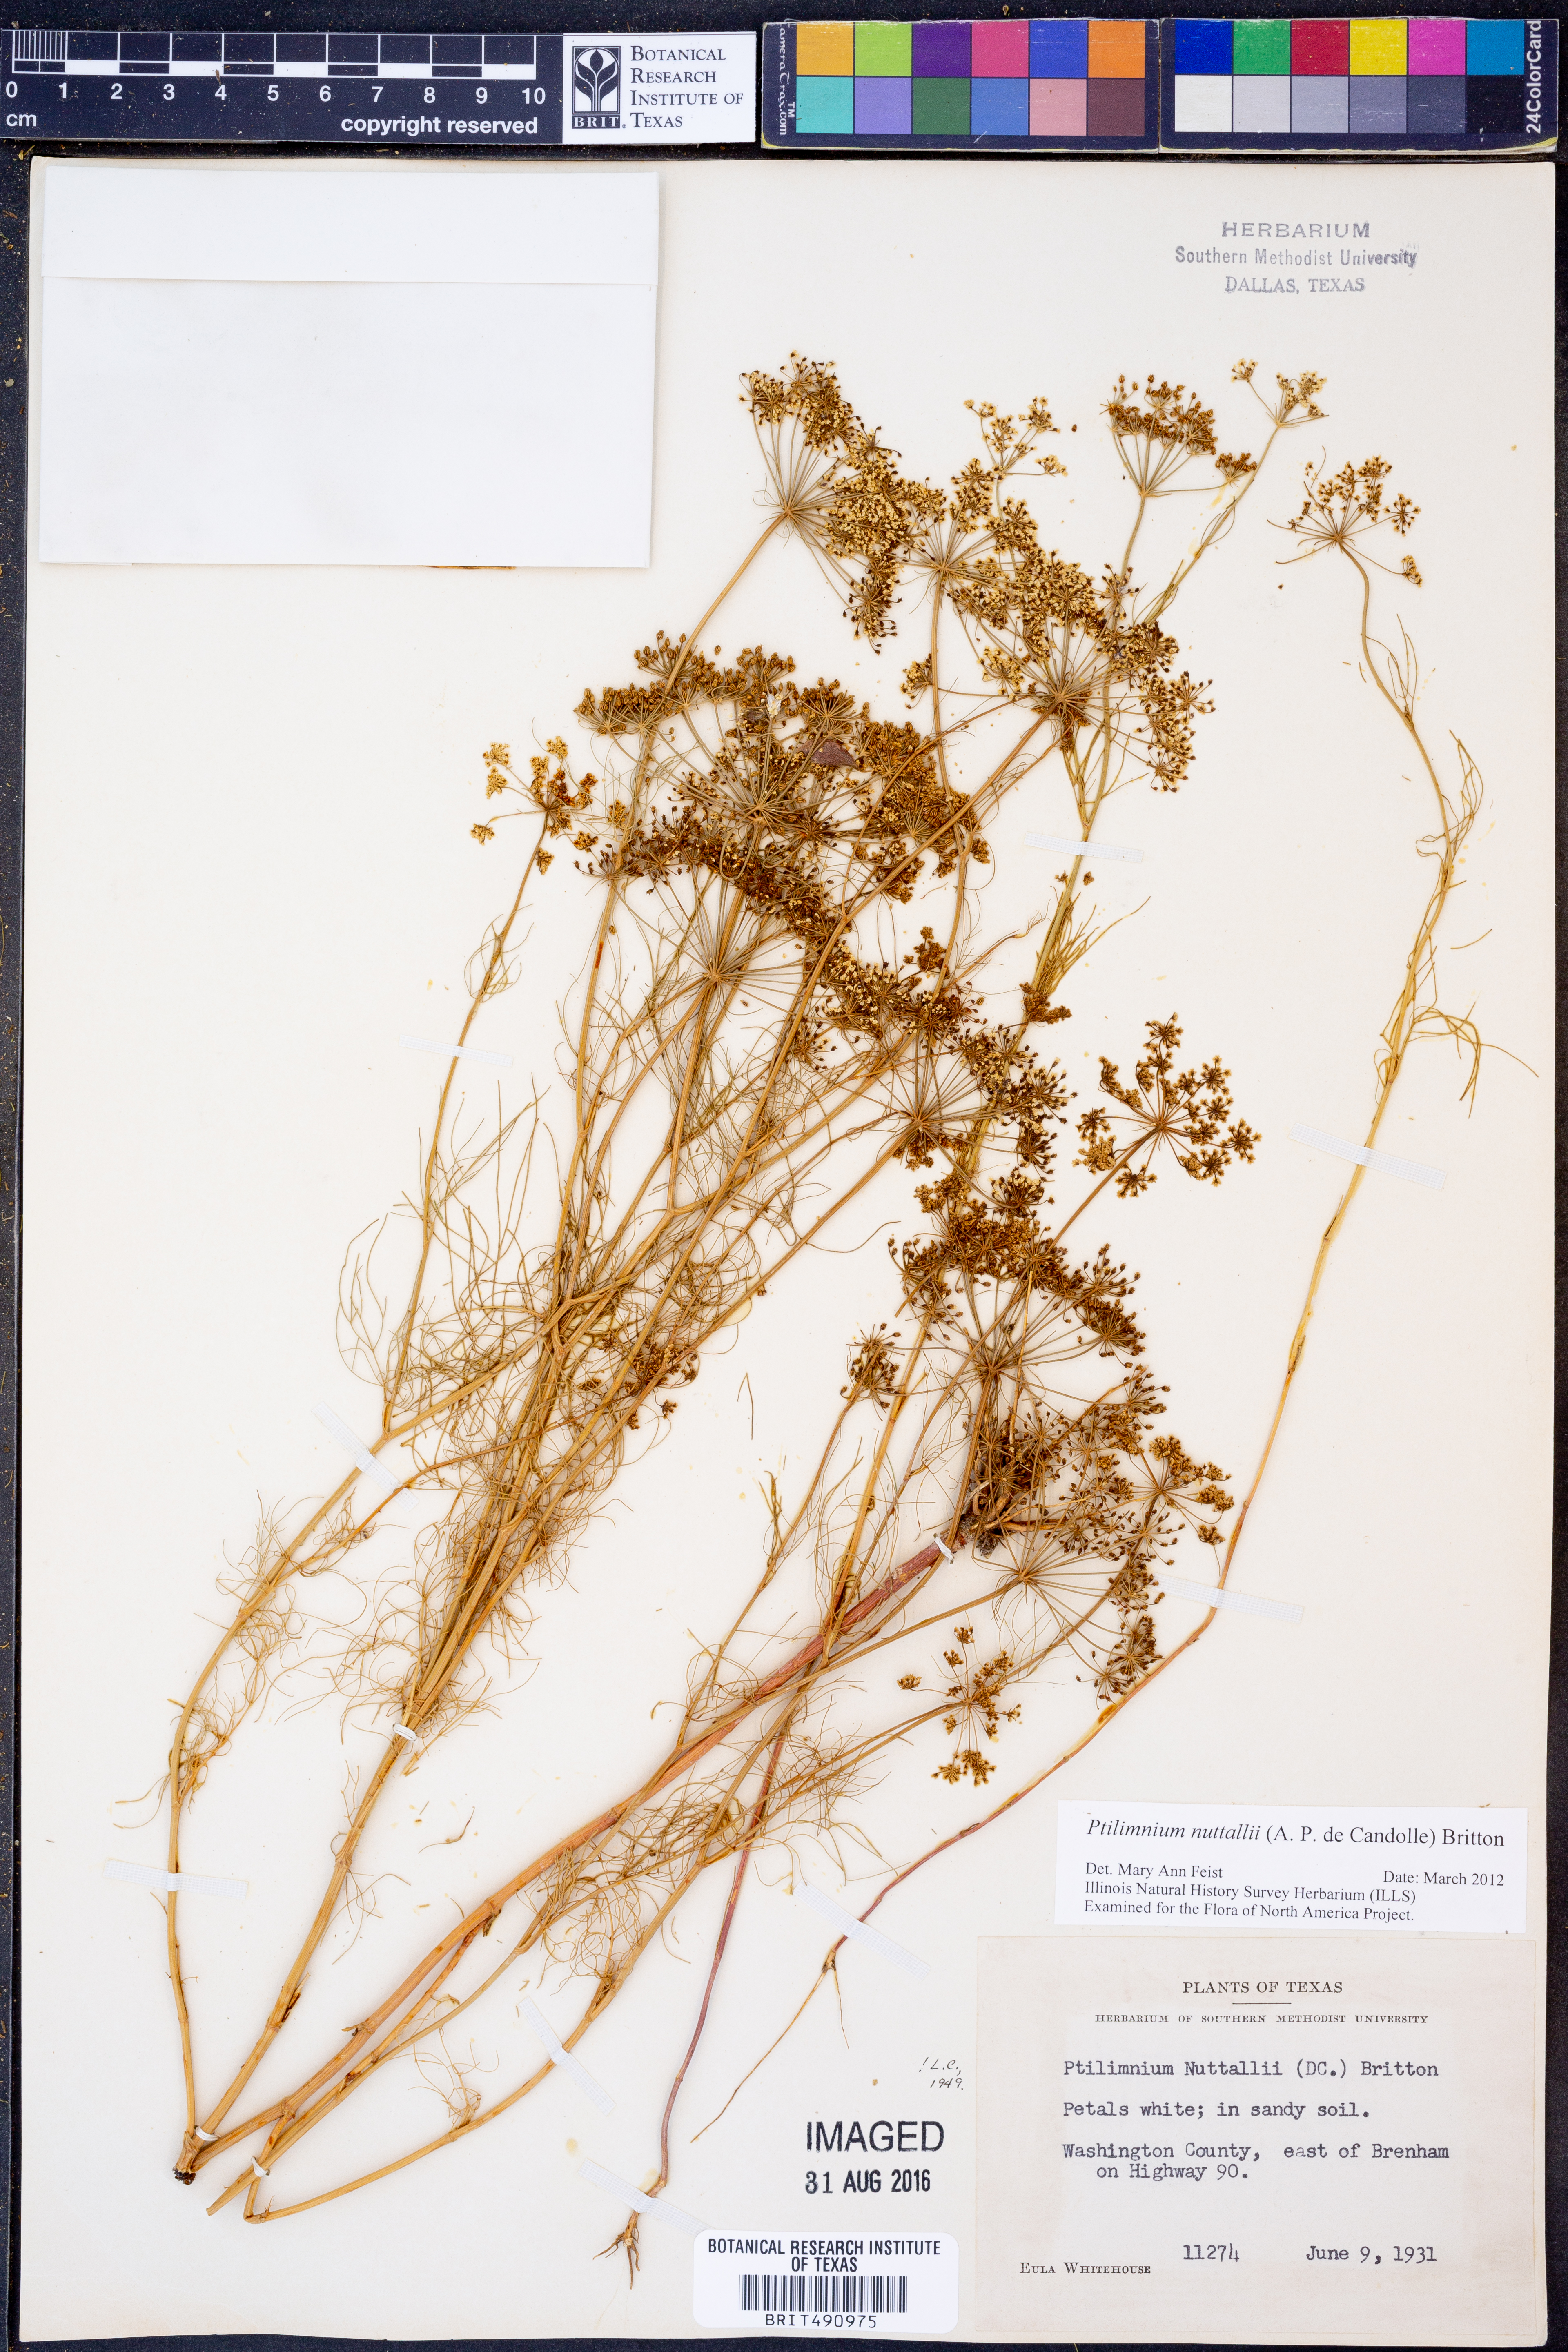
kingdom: Plantae
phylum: Tracheophyta
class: Magnoliopsida
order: Apiales
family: Apiaceae
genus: Ptilimnium
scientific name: Ptilimnium nuttallii
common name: Ozark bishop's-weed
